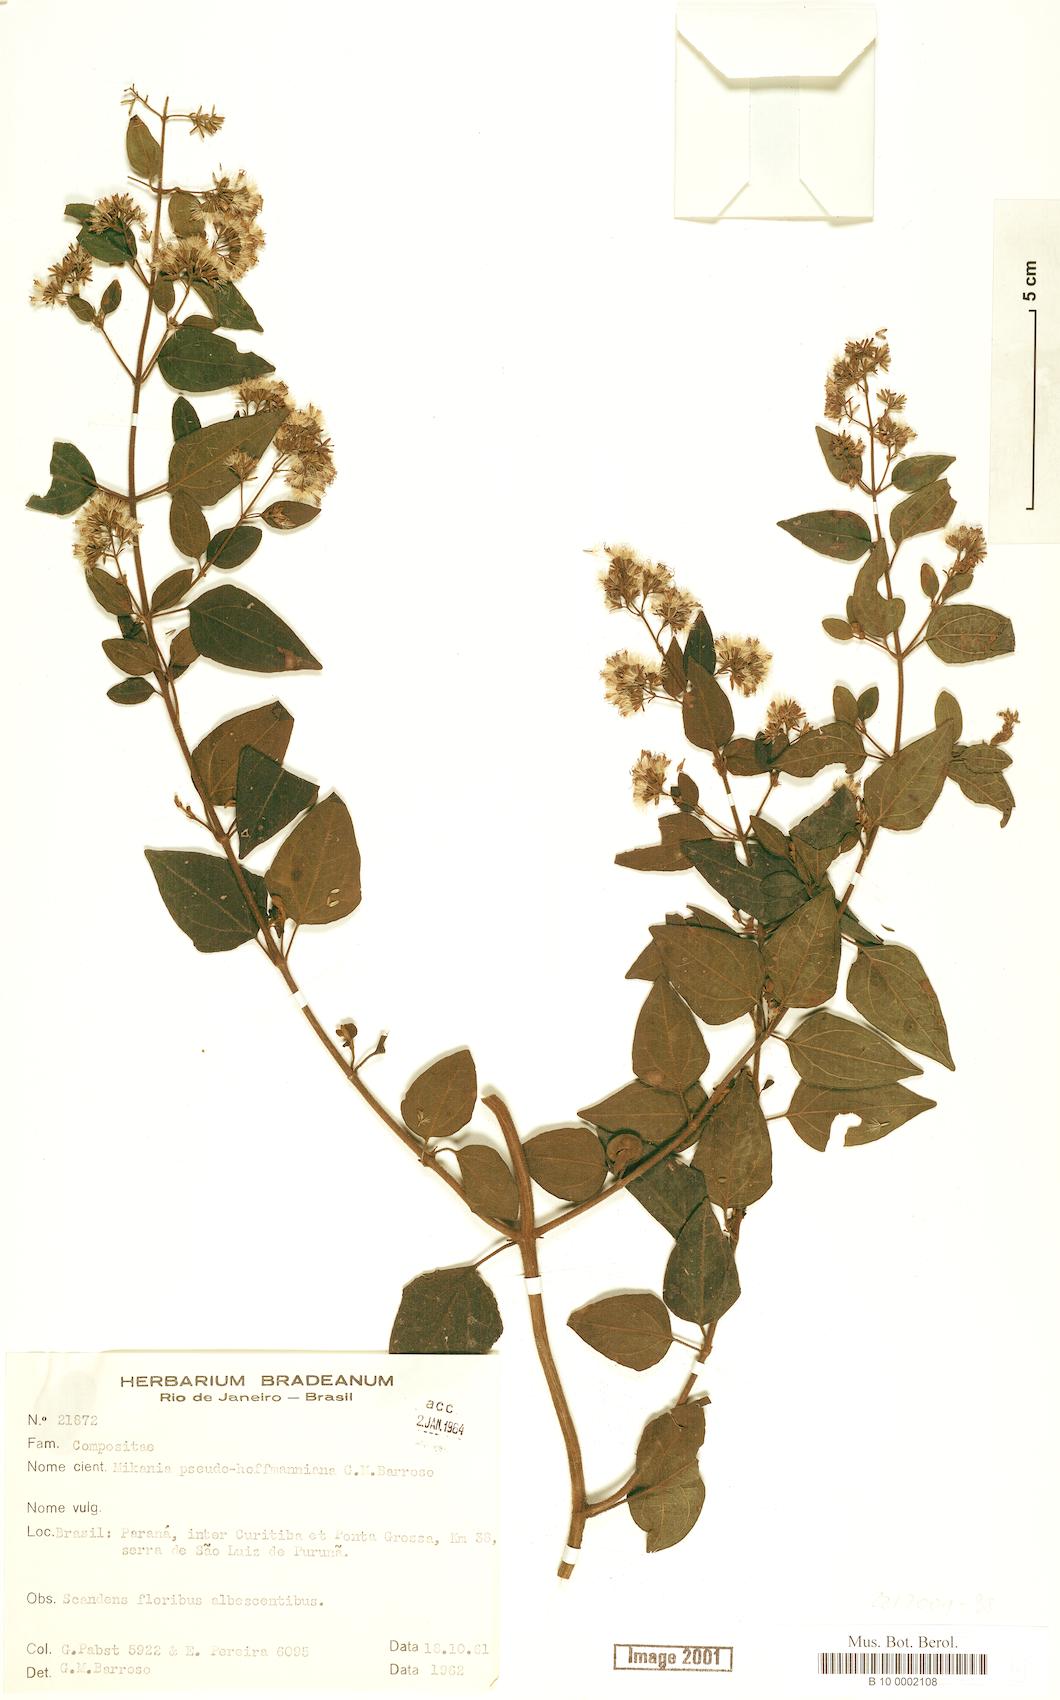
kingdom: Plantae
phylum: Tracheophyta
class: Magnoliopsida
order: Asterales
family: Asteraceae
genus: Mikania
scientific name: Mikania pseudohoffmanniana
